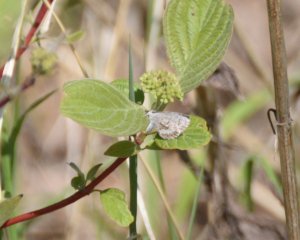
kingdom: Animalia
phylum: Arthropoda
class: Insecta
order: Lepidoptera
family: Lycaenidae
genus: Celastrina
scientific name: Celastrina lucia
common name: Northern Spring Azure
